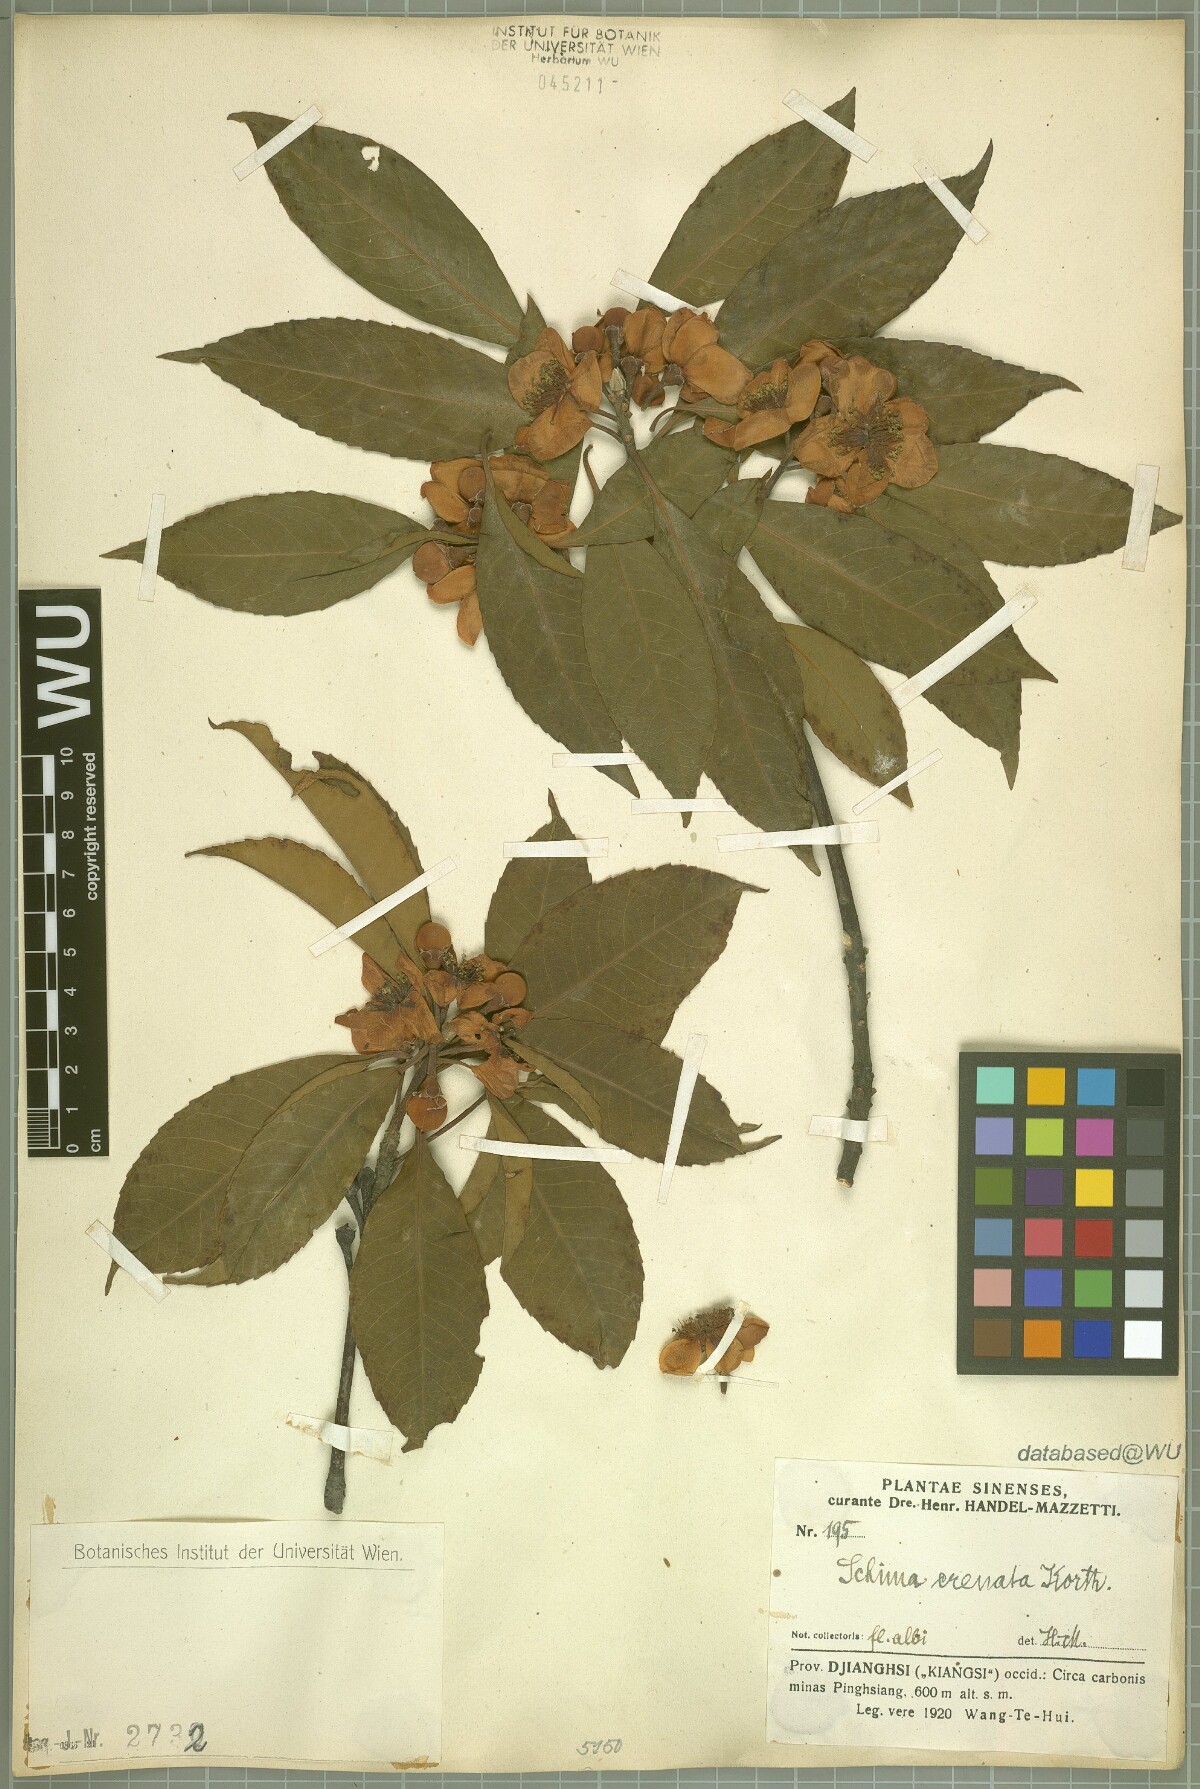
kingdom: Plantae
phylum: Tracheophyta
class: Magnoliopsida
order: Ericales
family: Theaceae
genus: Schima
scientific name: Schima wallichii
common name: Schima
